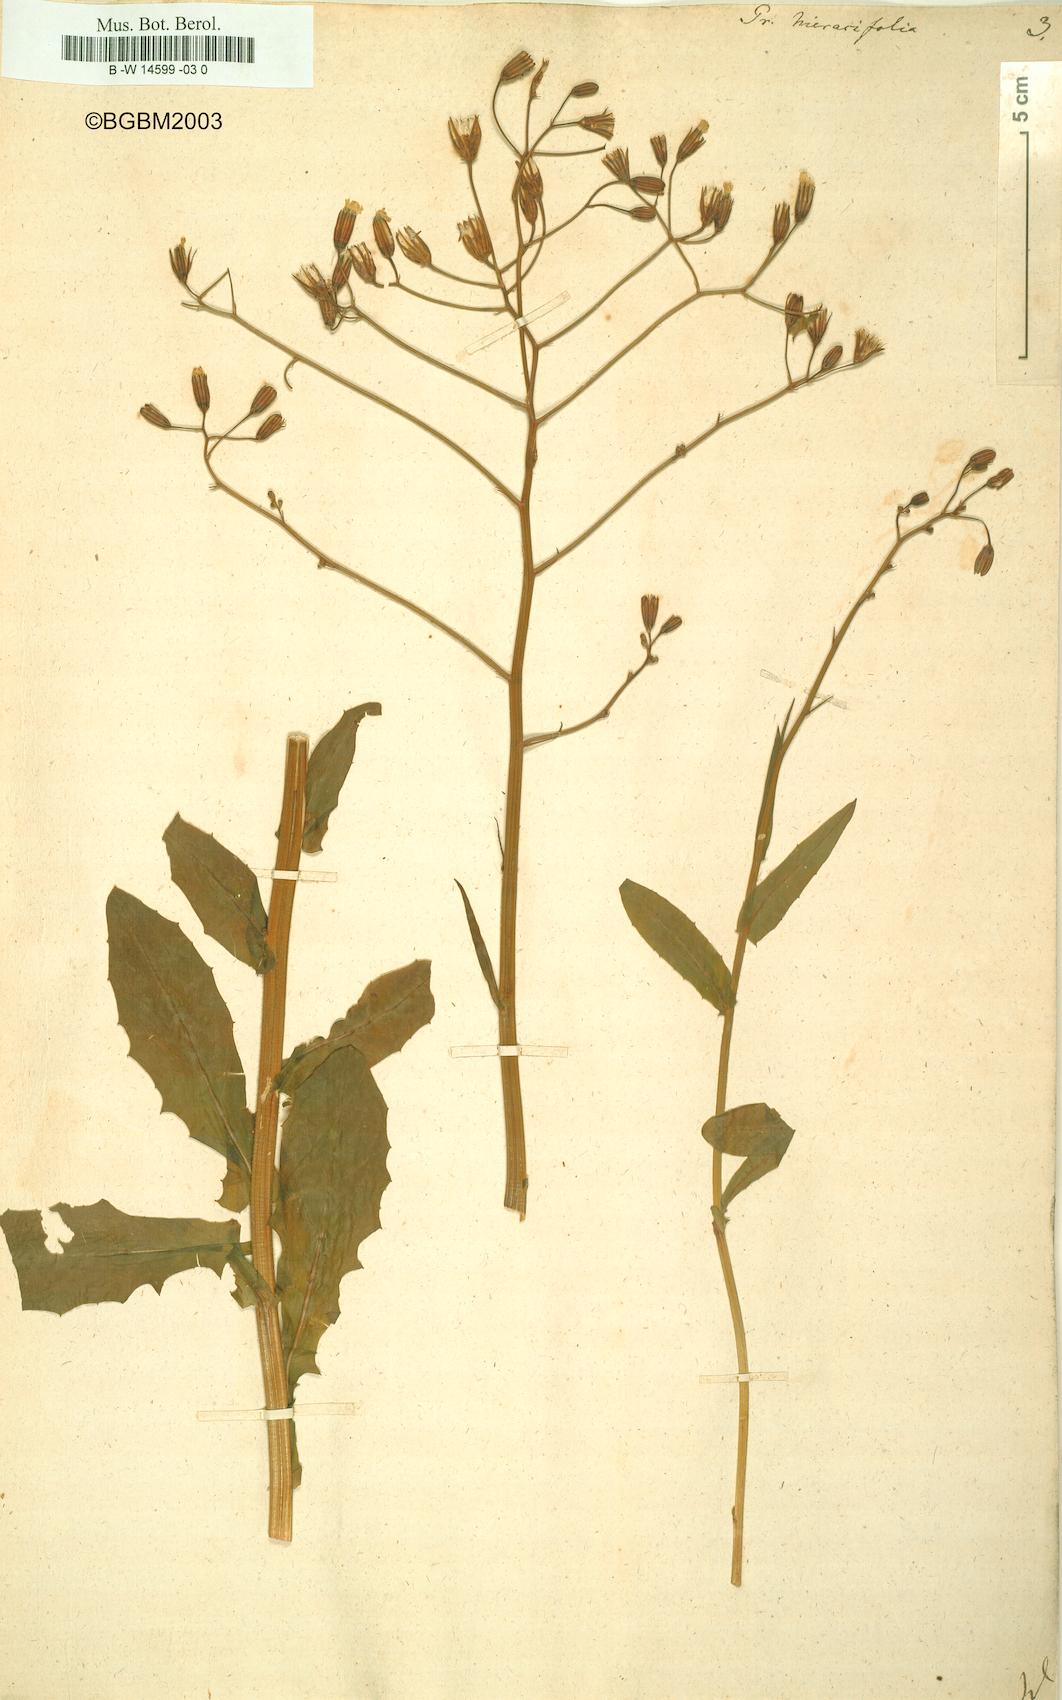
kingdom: Plantae
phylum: Tracheophyta
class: Magnoliopsida
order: Asterales
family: Asteraceae
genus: Crepis
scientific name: Crepis pulchra
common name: Hawk's-beard
